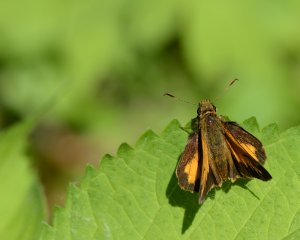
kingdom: Animalia
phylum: Arthropoda
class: Insecta
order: Lepidoptera
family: Hesperiidae
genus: Lon
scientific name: Lon hobomok
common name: Hobomok Skipper
